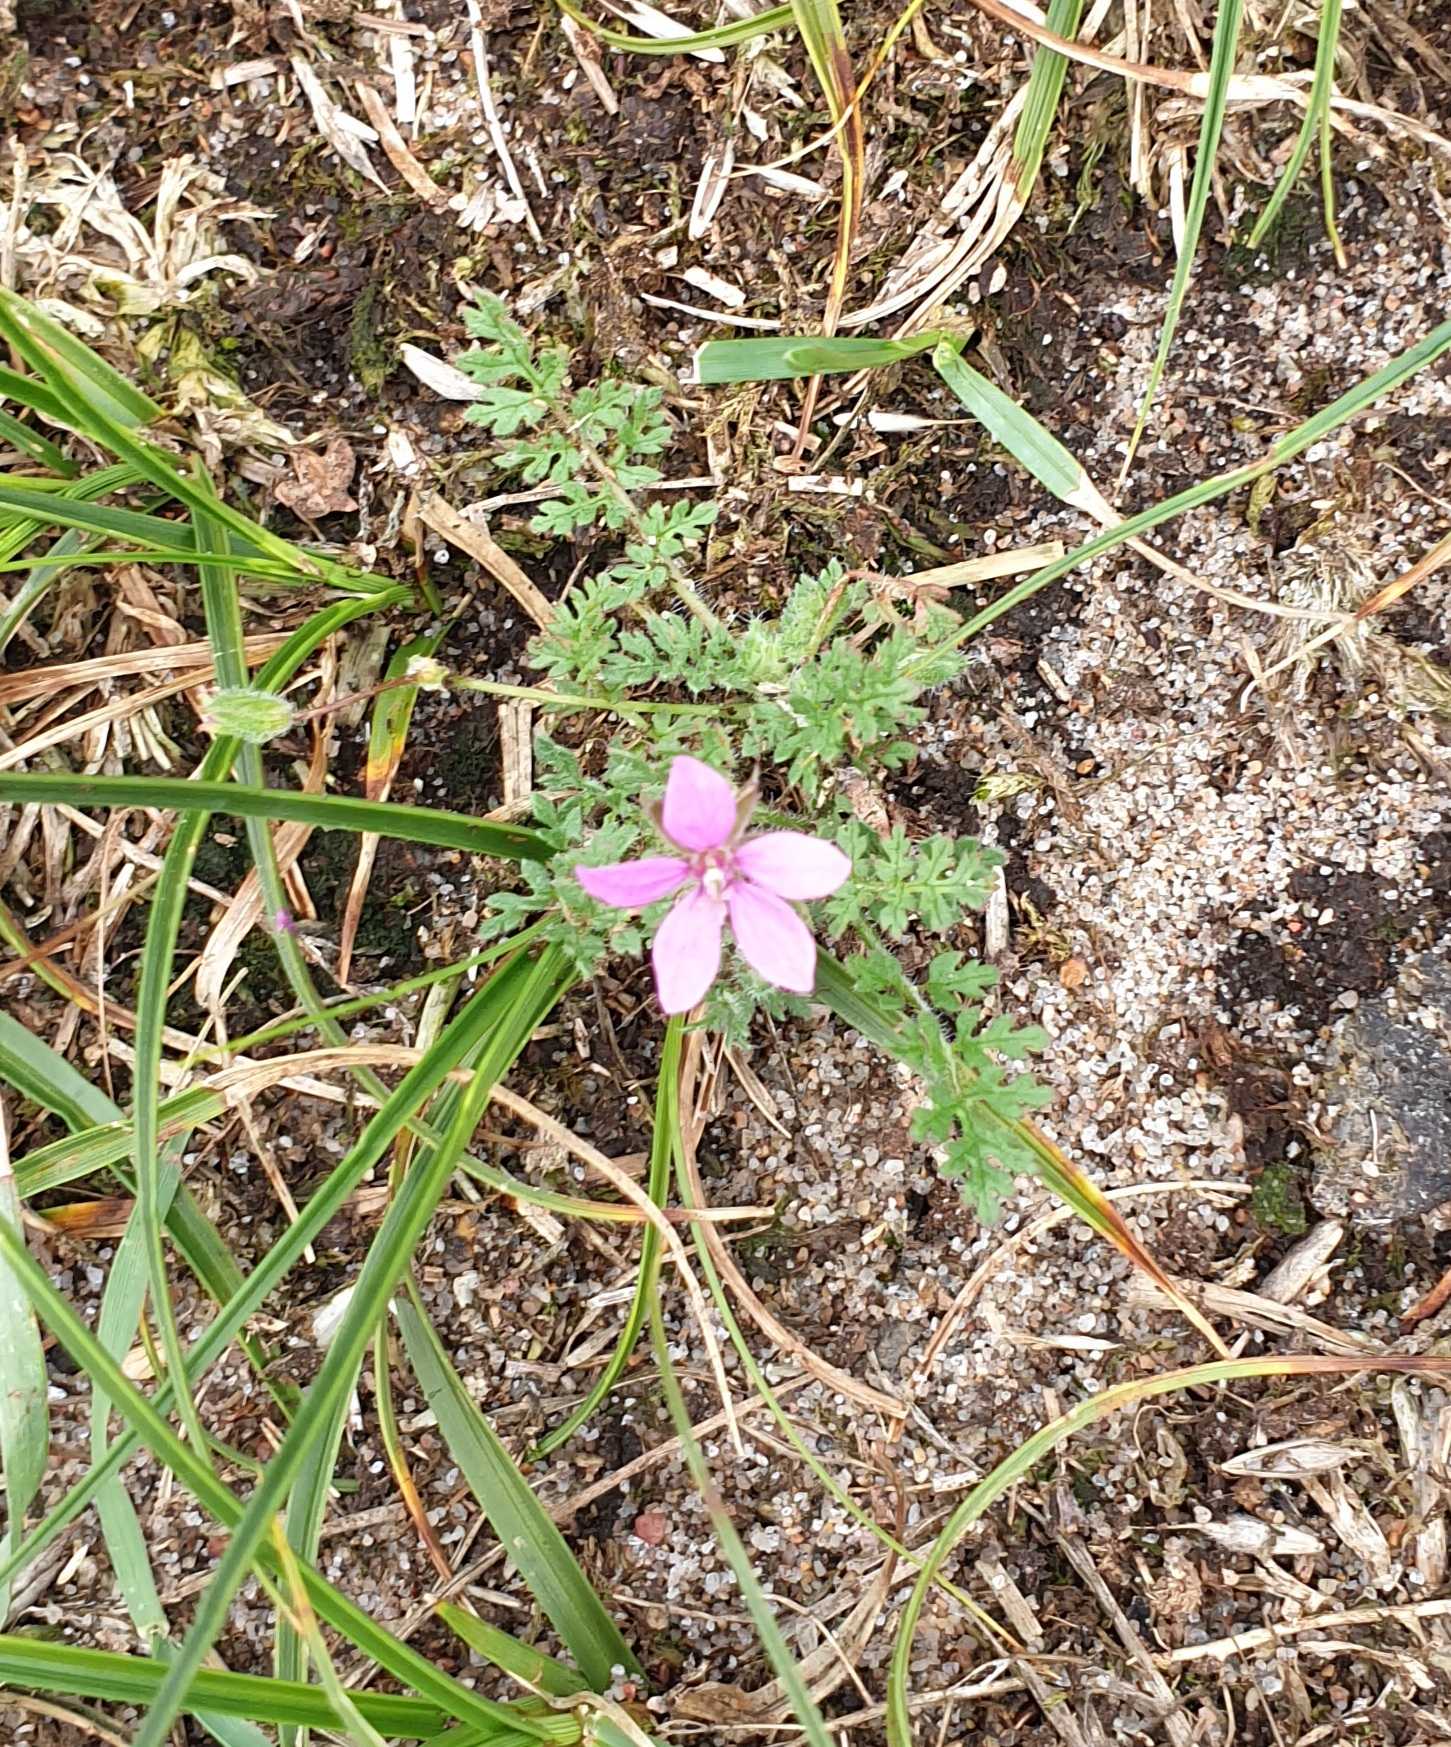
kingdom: Plantae
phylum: Tracheophyta
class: Magnoliopsida
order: Geraniales
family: Geraniaceae
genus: Erodium
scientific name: Erodium cicutarium
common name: Hejrenæb
